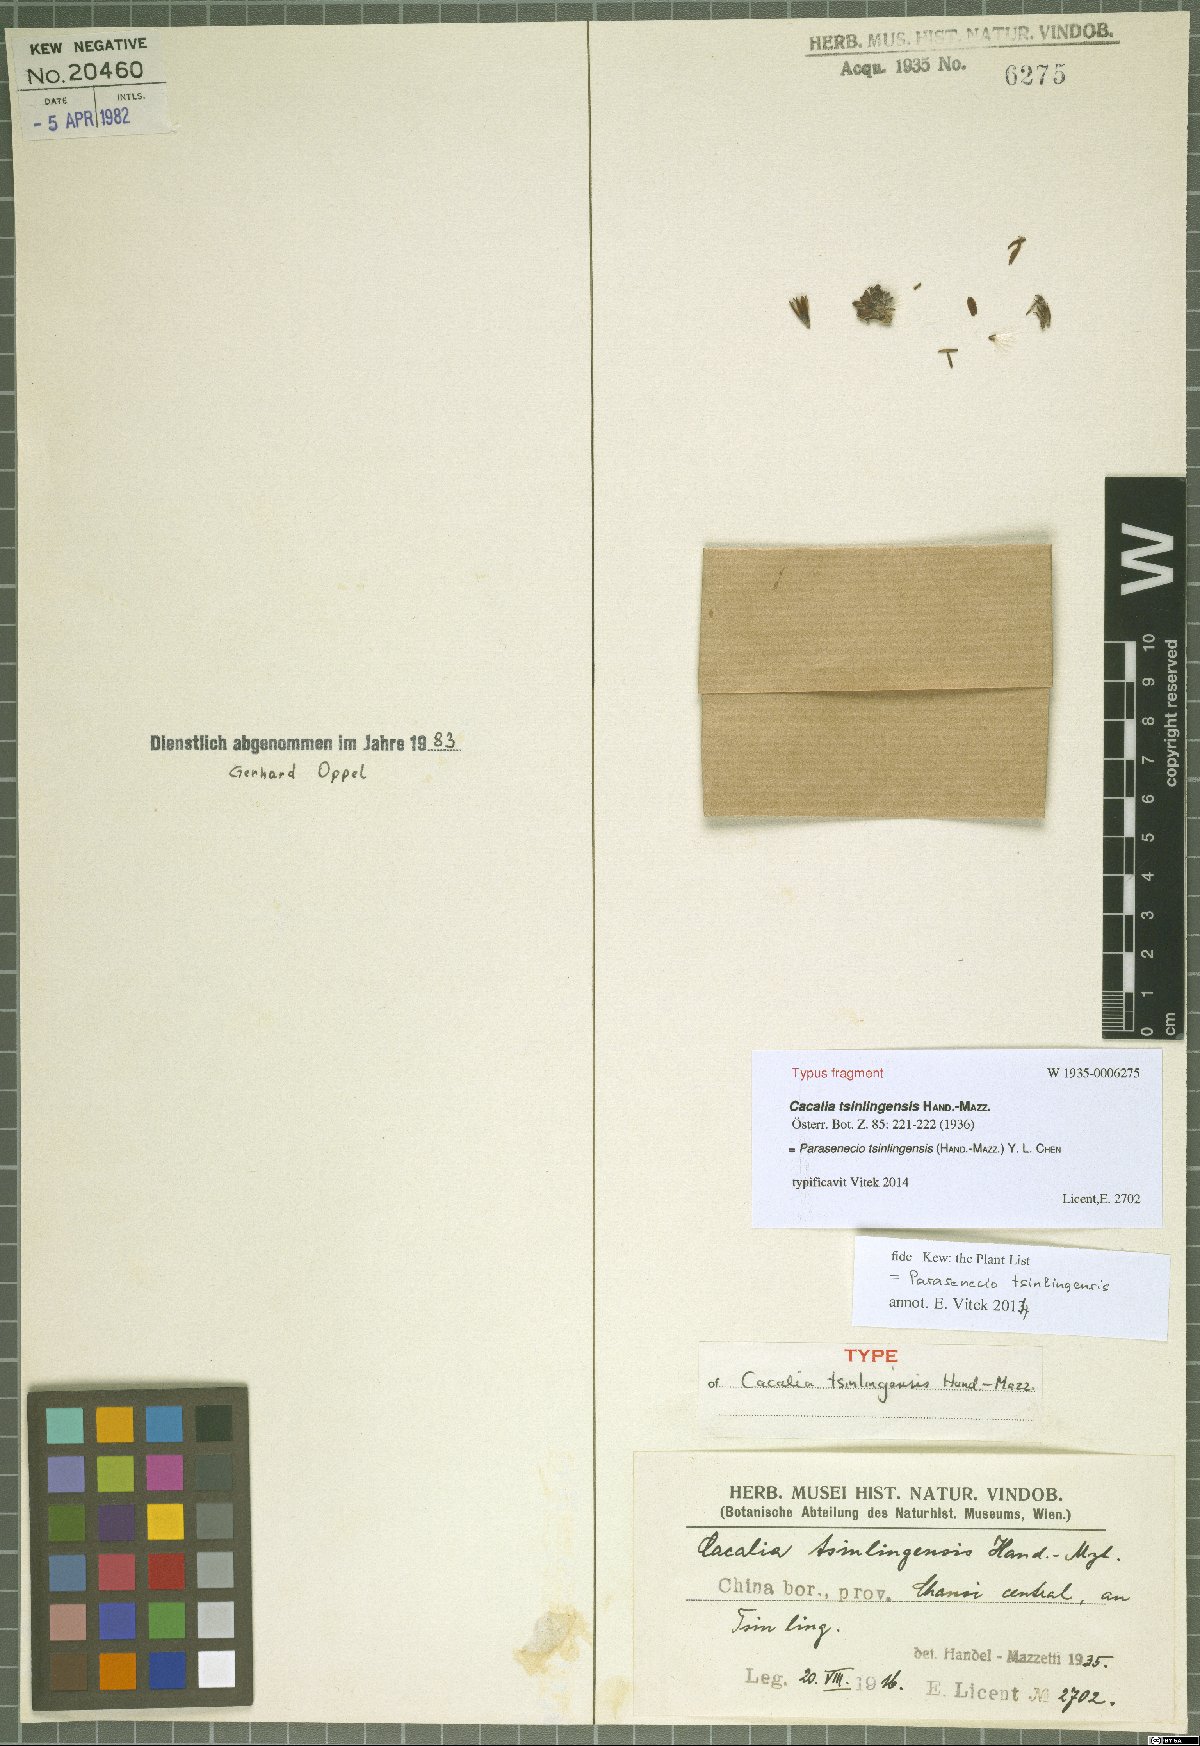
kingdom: Plantae
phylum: Tracheophyta
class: Magnoliopsida
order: Asterales
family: Asteraceae
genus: Parasenecio
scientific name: Parasenecio tsinlingensis
